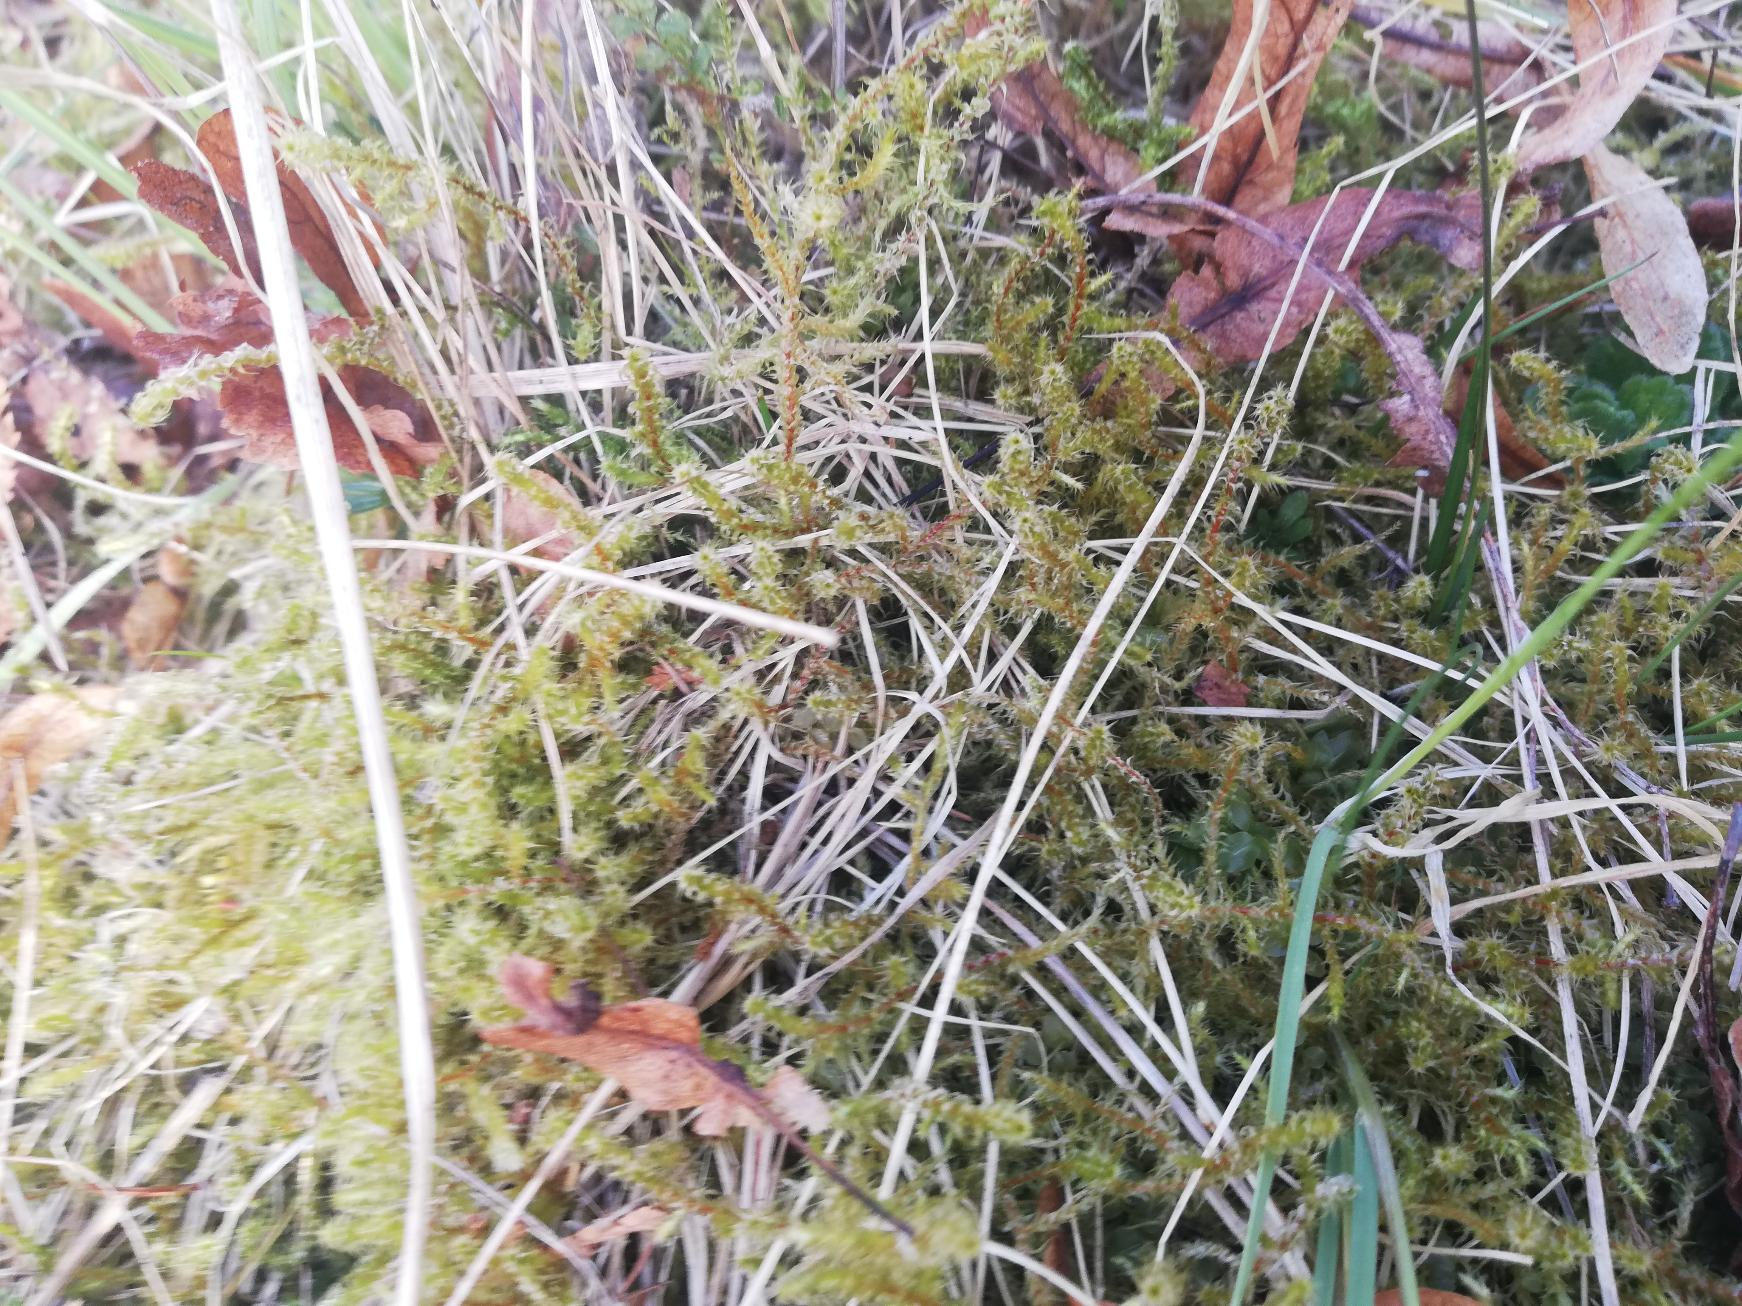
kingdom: Plantae
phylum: Bryophyta
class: Bryopsida
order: Hypnales
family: Hylocomiaceae
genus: Rhytidiadelphus
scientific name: Rhytidiadelphus squarrosus
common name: Plæne-kransemos
